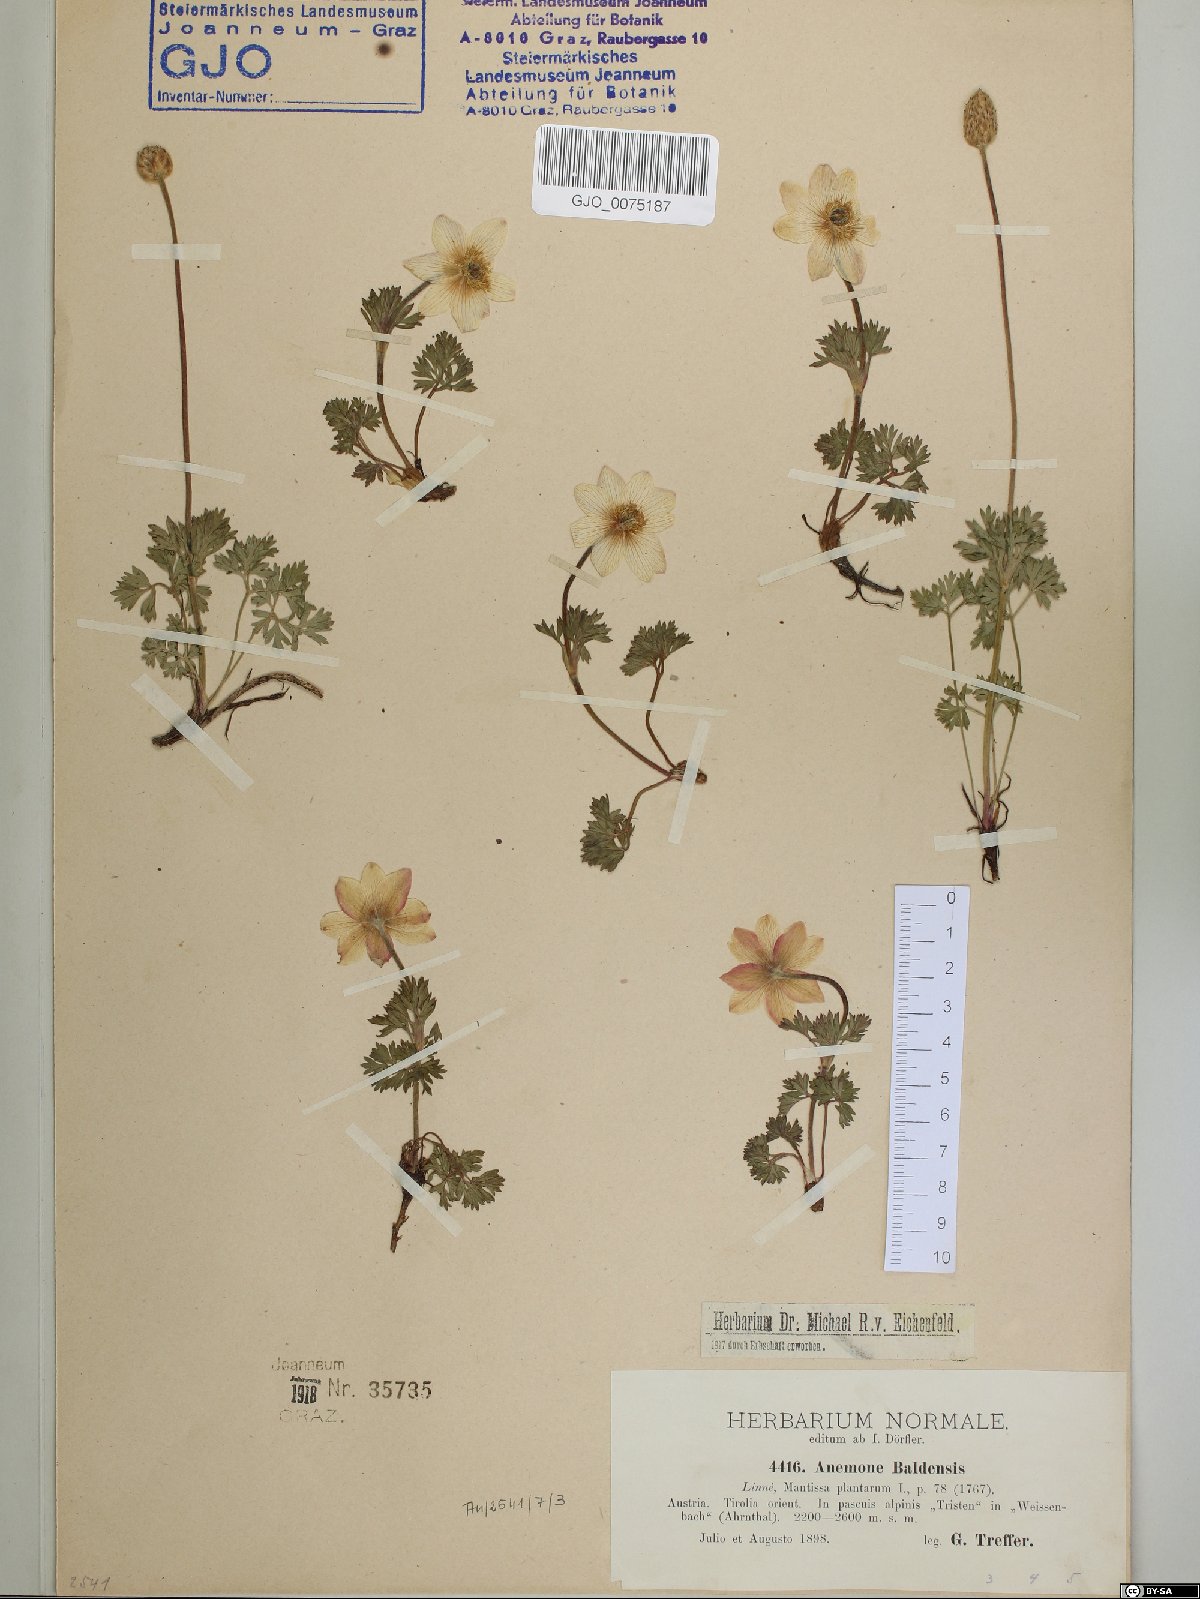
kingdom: Plantae
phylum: Tracheophyta
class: Magnoliopsida
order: Ranunculales
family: Ranunculaceae
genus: Anemone
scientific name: Anemone baldensis
